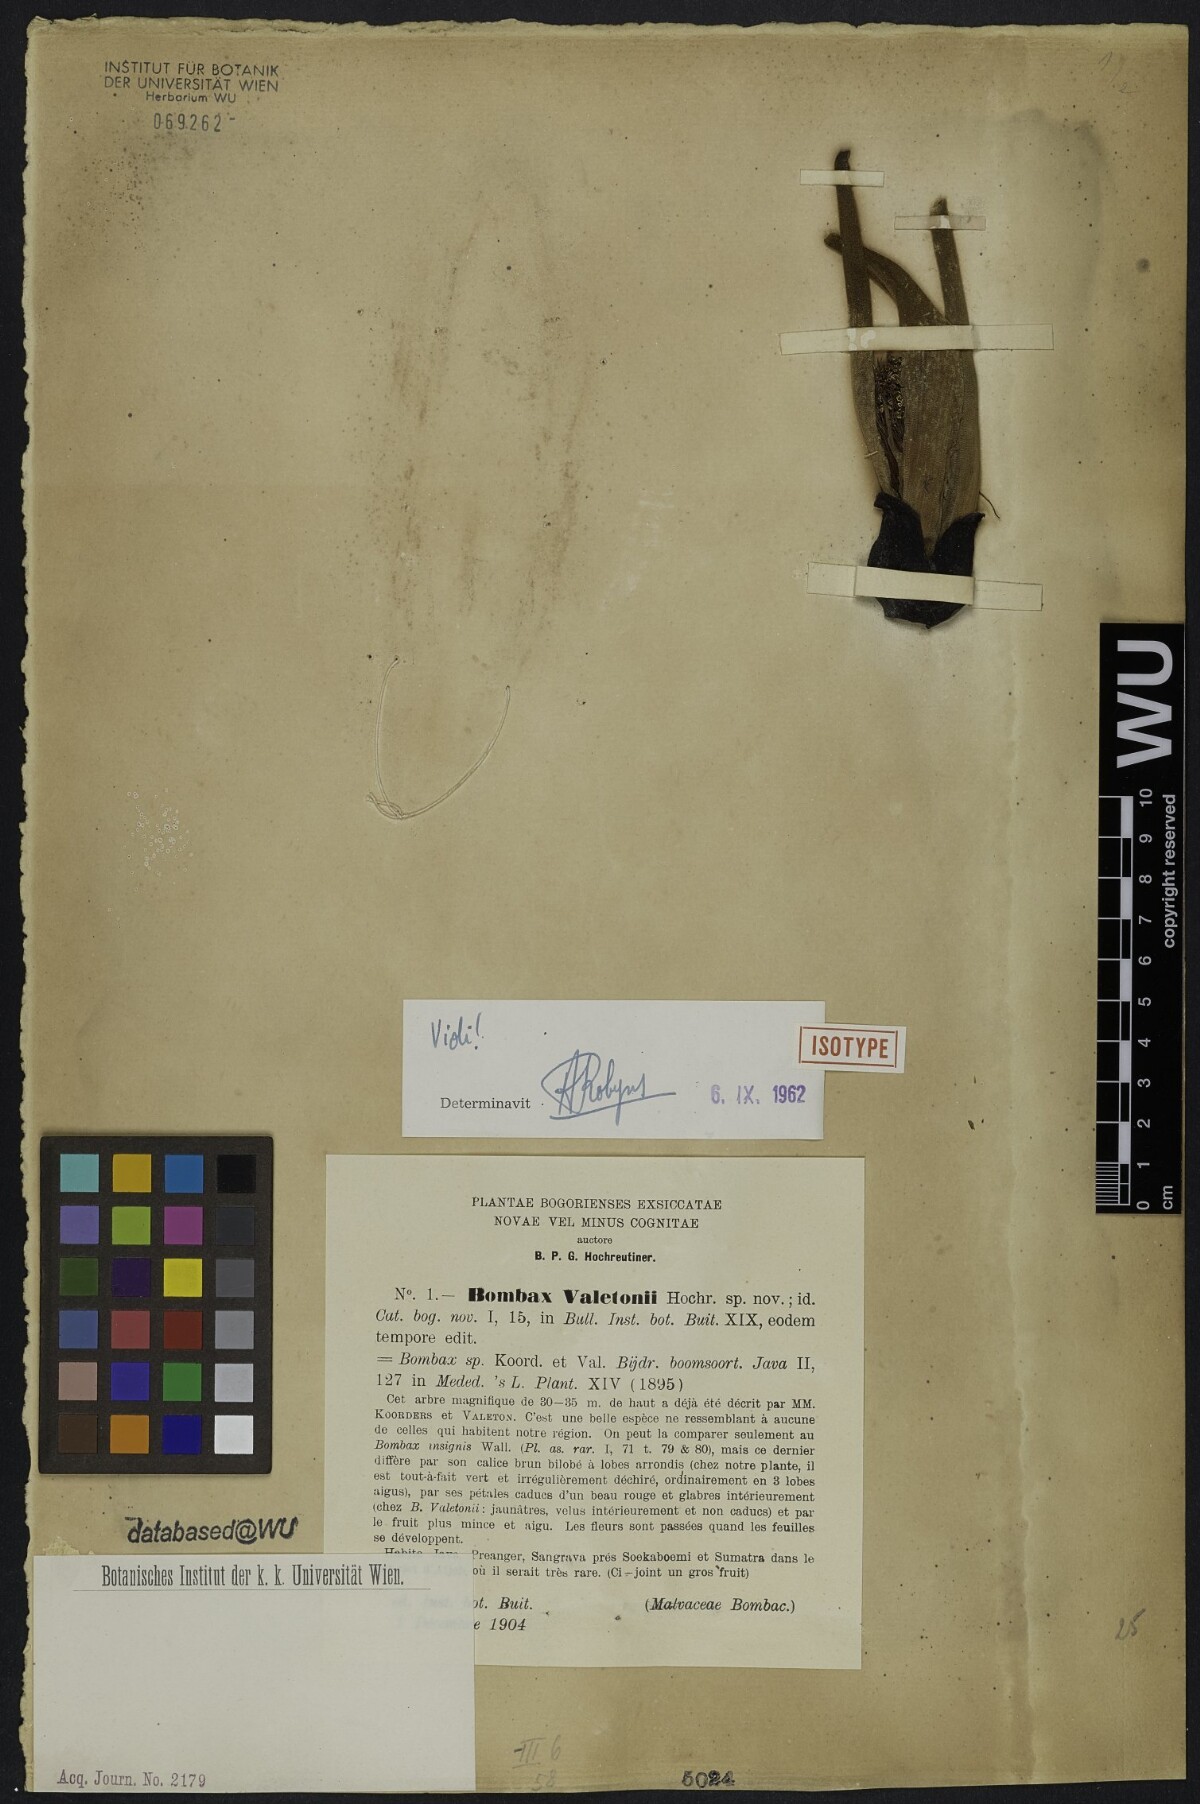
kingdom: Plantae
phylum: Tracheophyta
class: Magnoliopsida
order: Malvales
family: Malvaceae
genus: Bombax
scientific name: Bombax anceps
